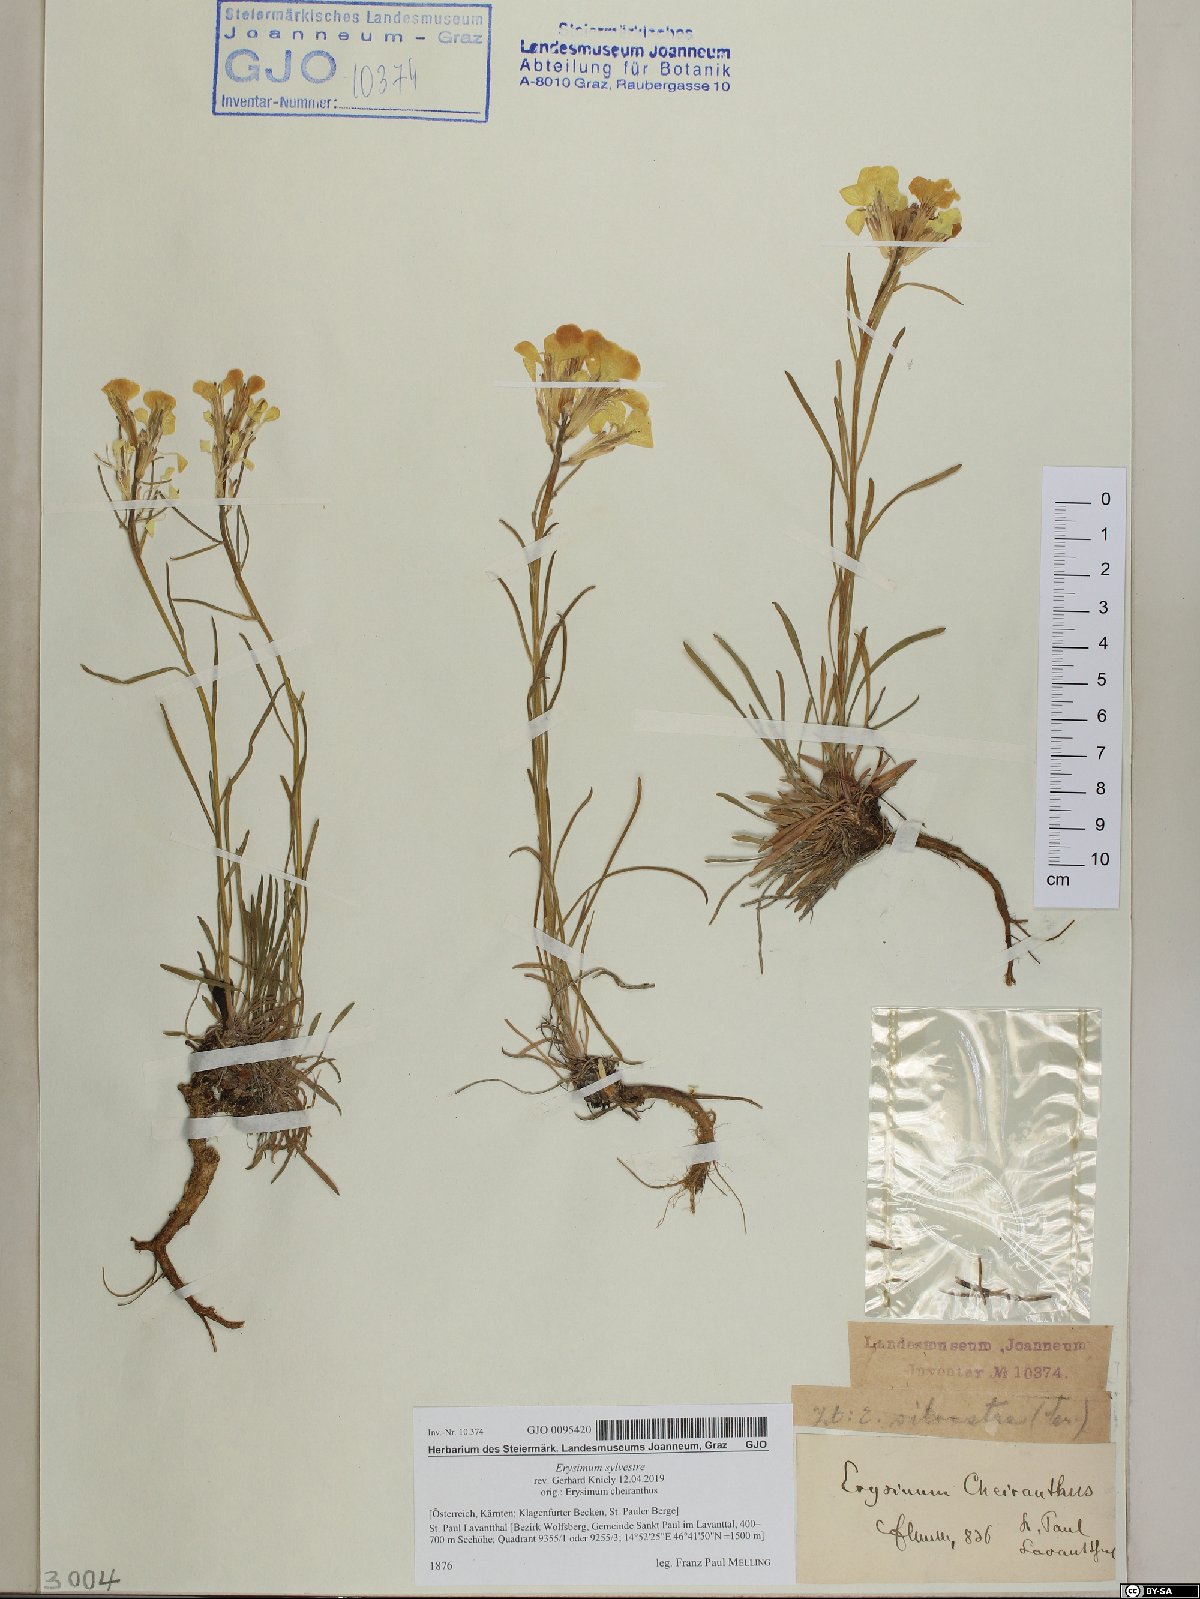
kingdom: Plantae
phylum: Tracheophyta
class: Magnoliopsida
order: Brassicales
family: Brassicaceae
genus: Erysimum
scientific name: Erysimum sylvestre
